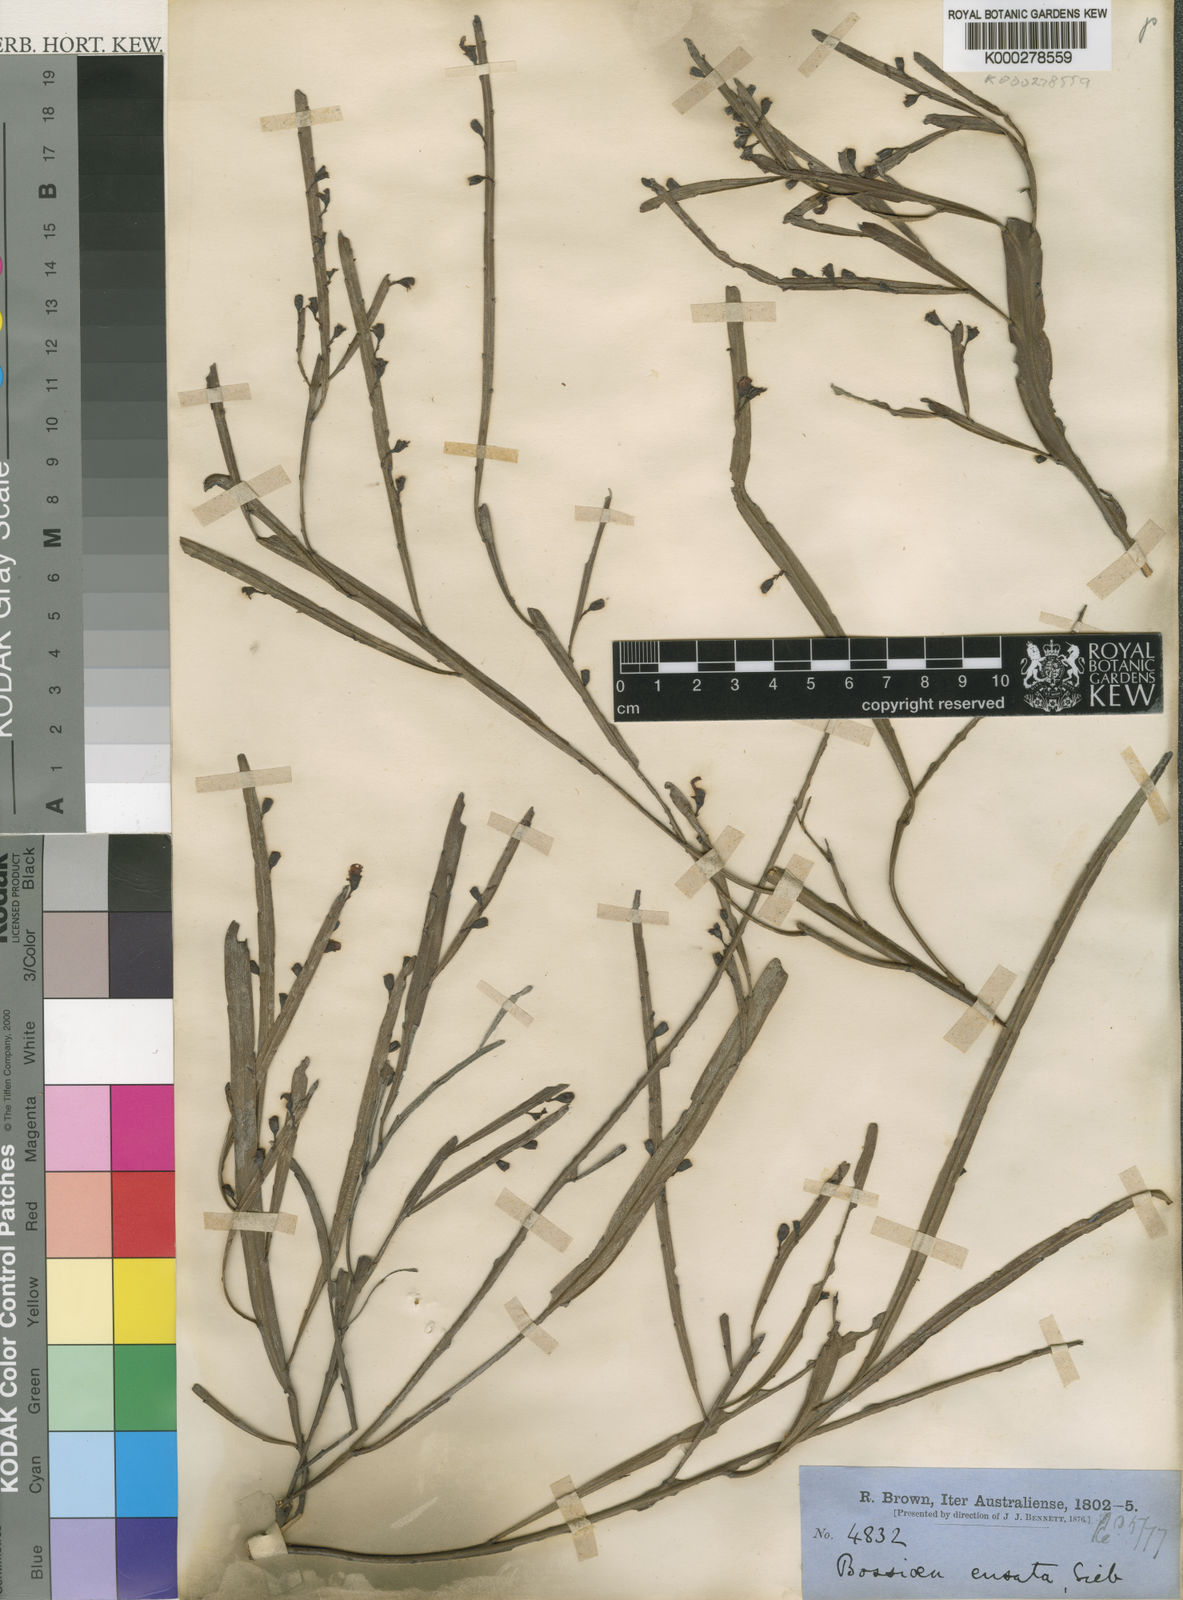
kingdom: Plantae
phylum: Tracheophyta
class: Magnoliopsida
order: Fabales
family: Fabaceae
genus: Bossiaea
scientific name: Bossiaea ensata
